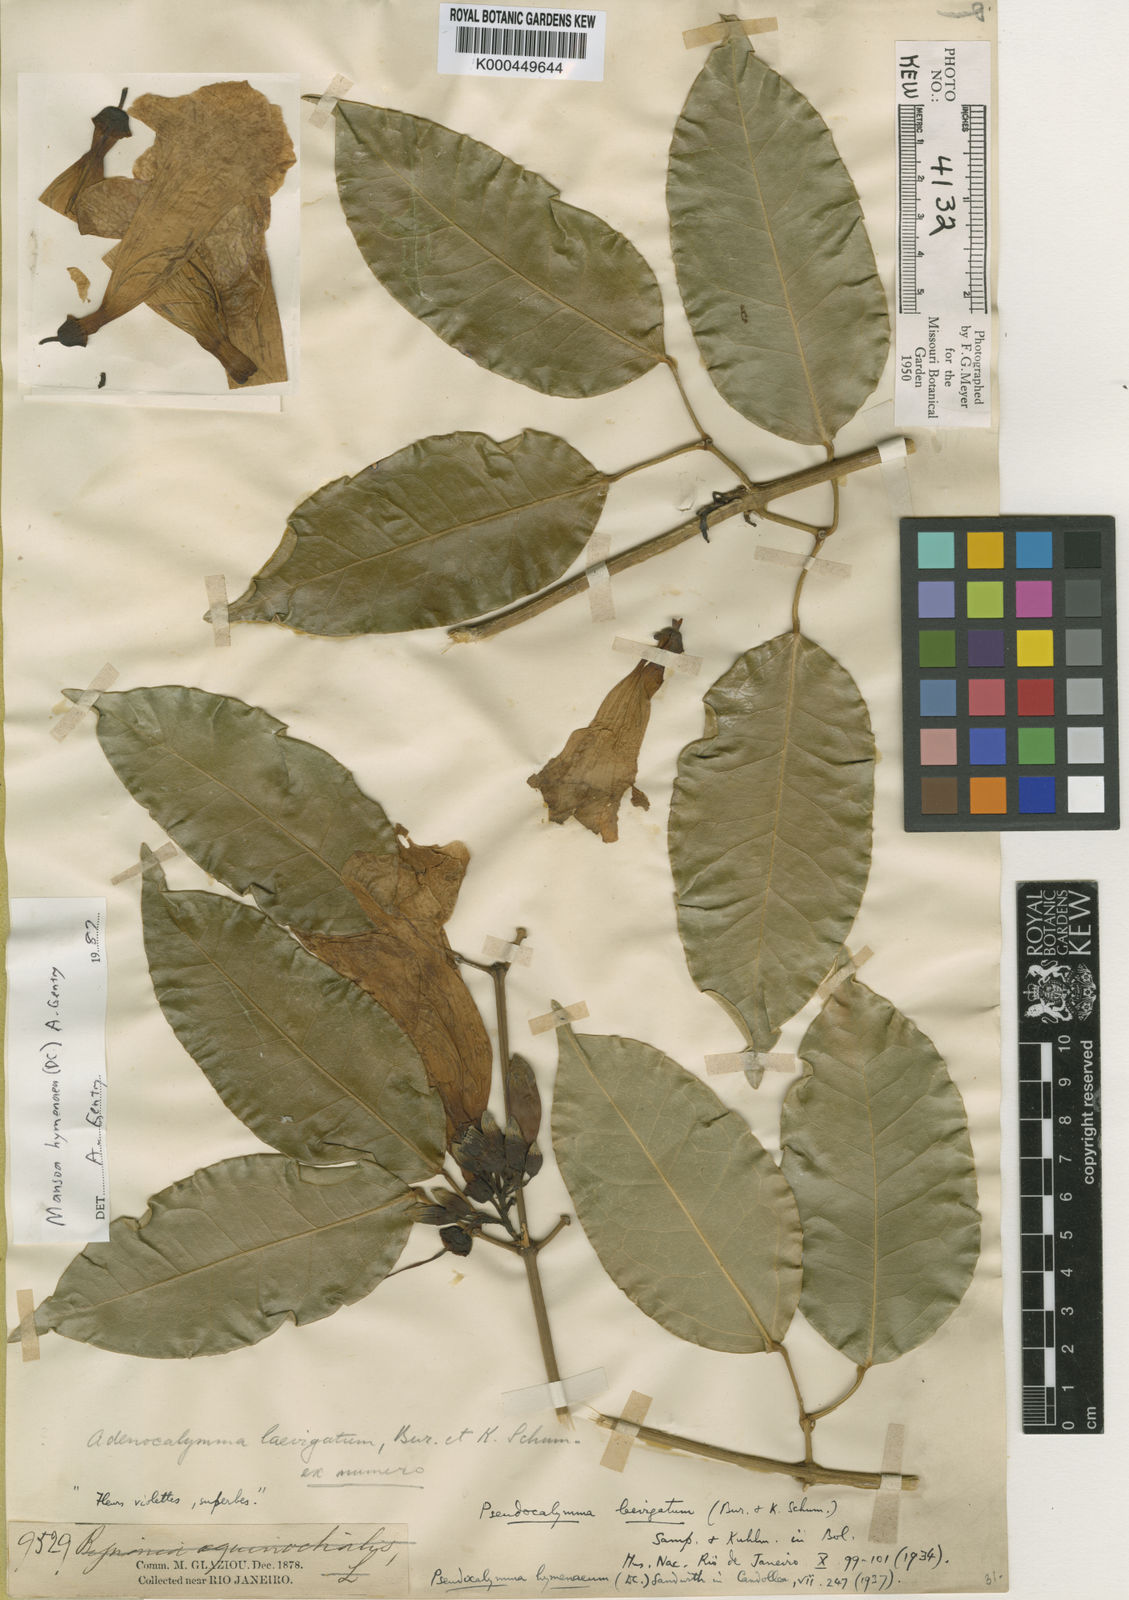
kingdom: Plantae
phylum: Tracheophyta
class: Magnoliopsida
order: Lamiales
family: Bignoniaceae
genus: Mansoa
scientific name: Mansoa hymenaea
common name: Membranous garlic vine
